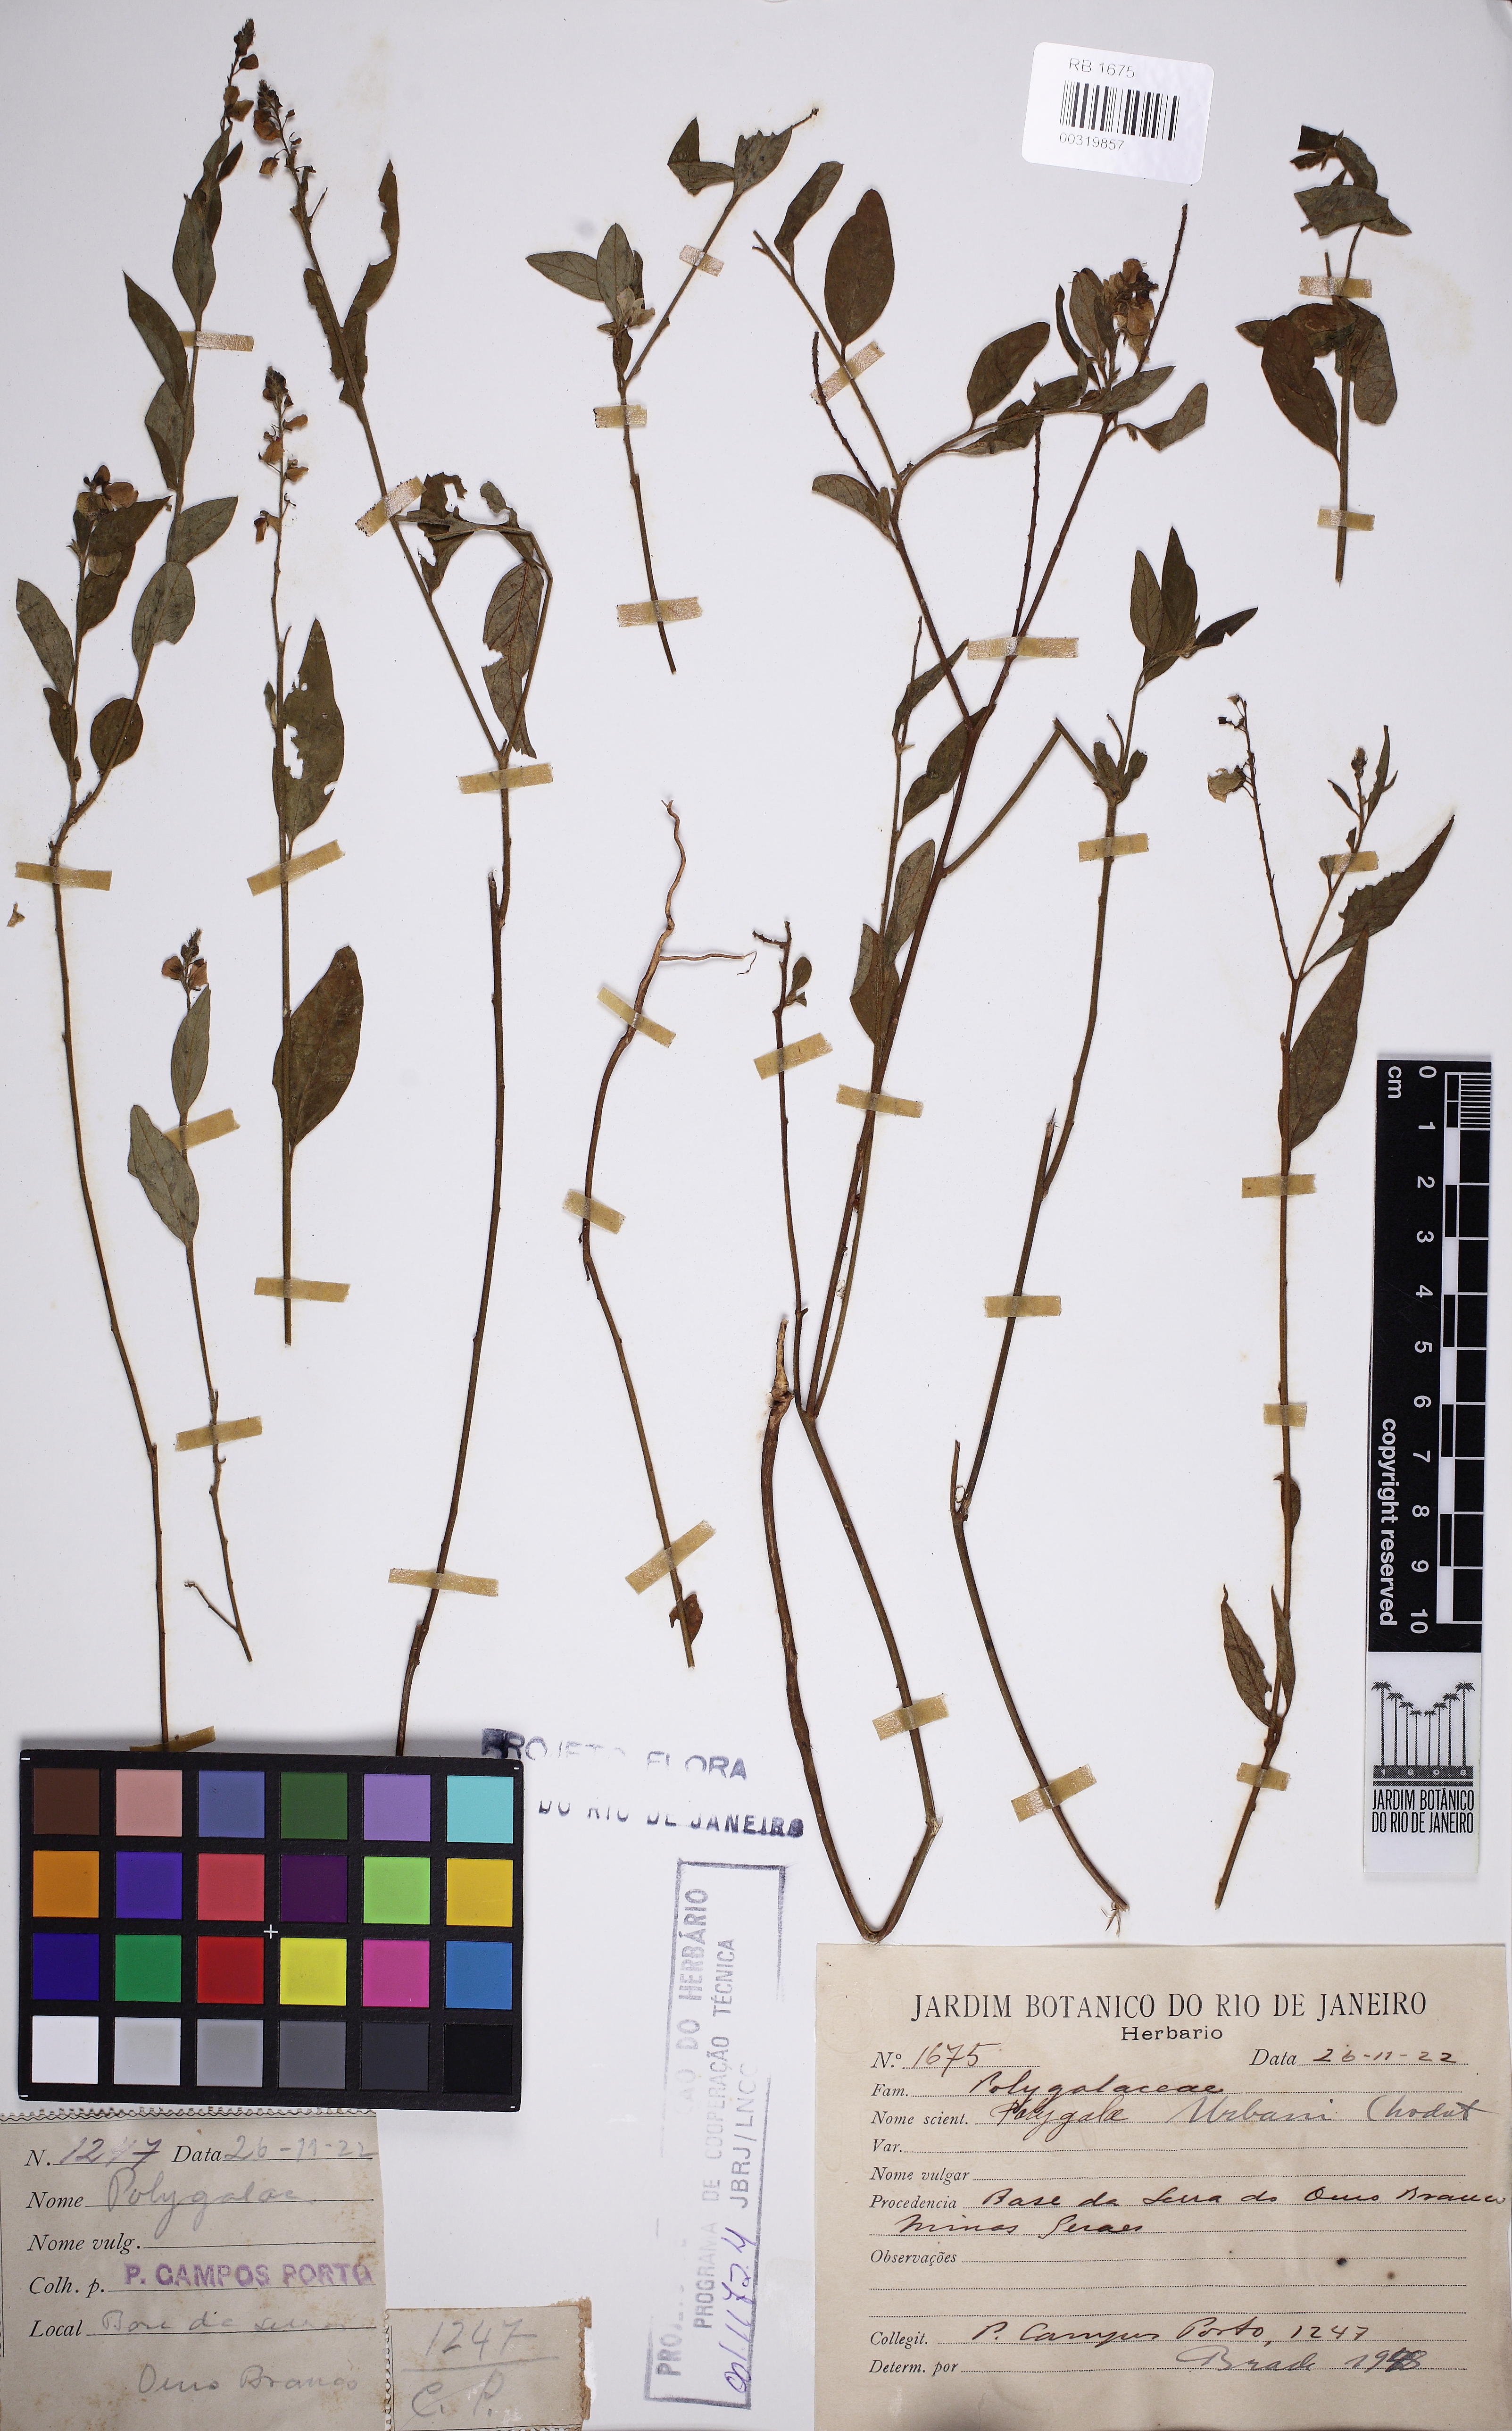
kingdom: Plantae
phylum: Tracheophyta
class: Magnoliopsida
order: Fabales
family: Polygalaceae
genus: Asemeia
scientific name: Asemeia monninoides
